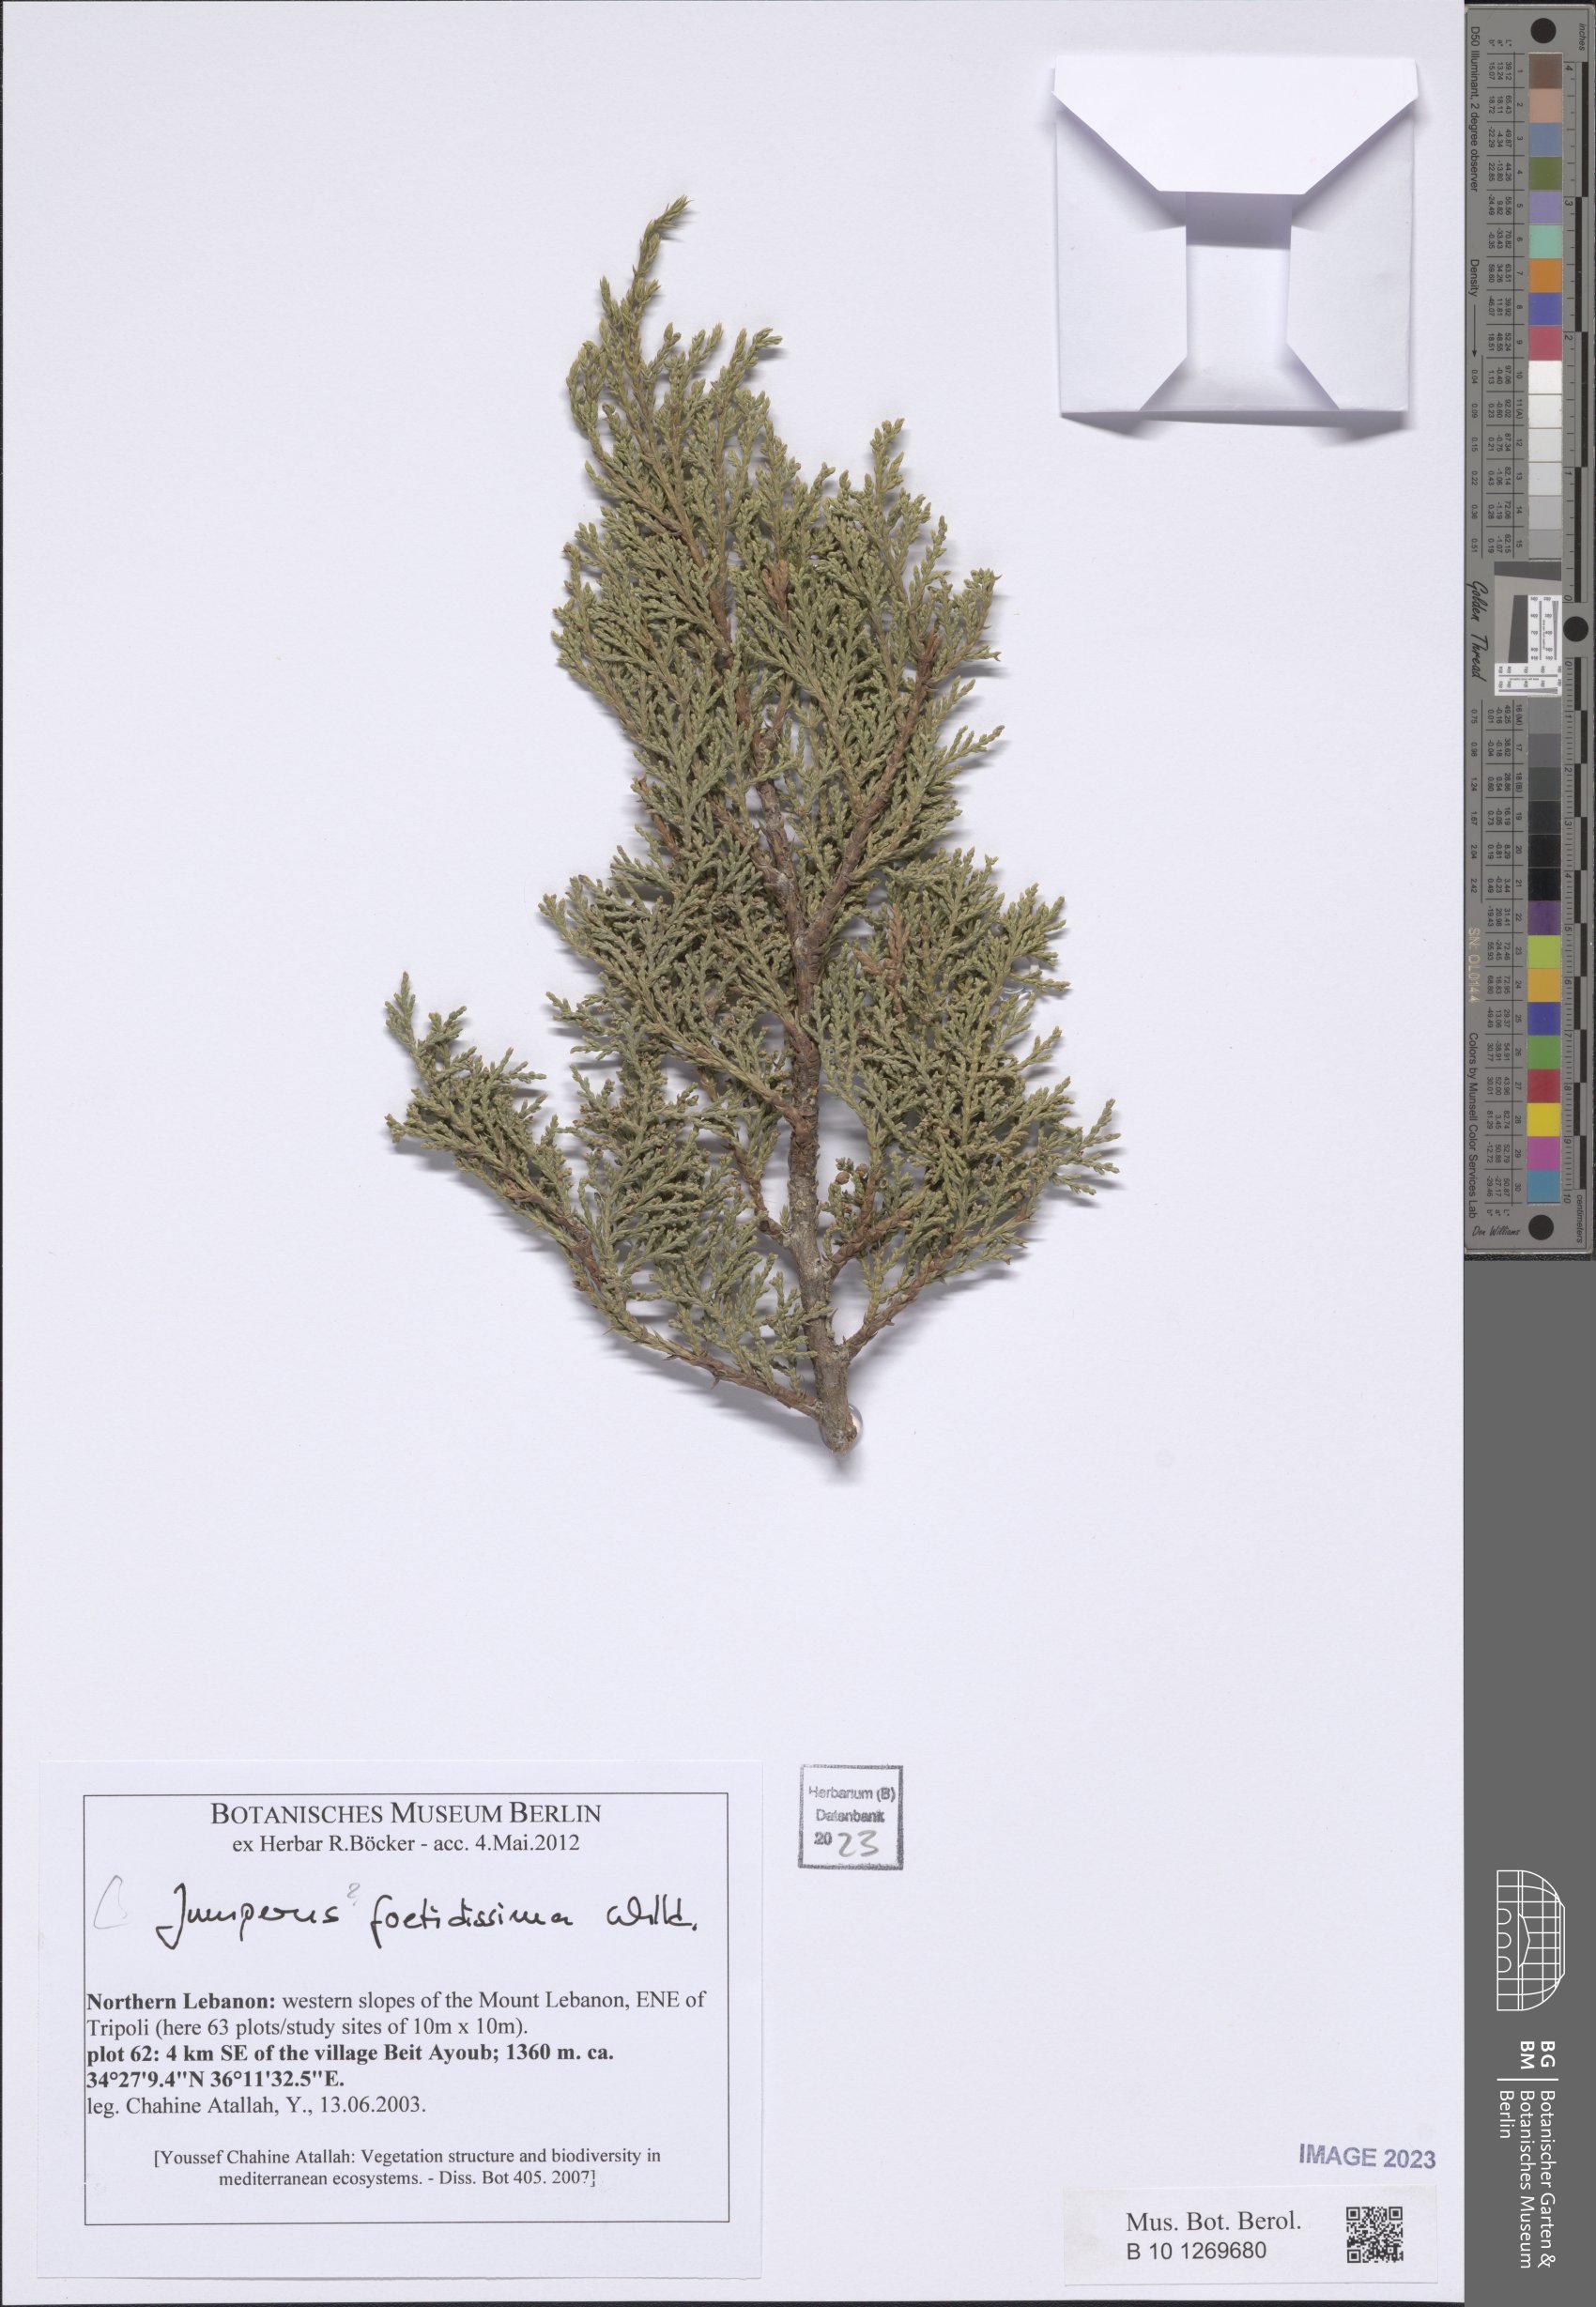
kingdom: Plantae
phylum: Tracheophyta
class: Pinopsida
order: Pinales
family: Cupressaceae
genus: Juniperus
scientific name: Juniperus foetidissima
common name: Stinking juniper
